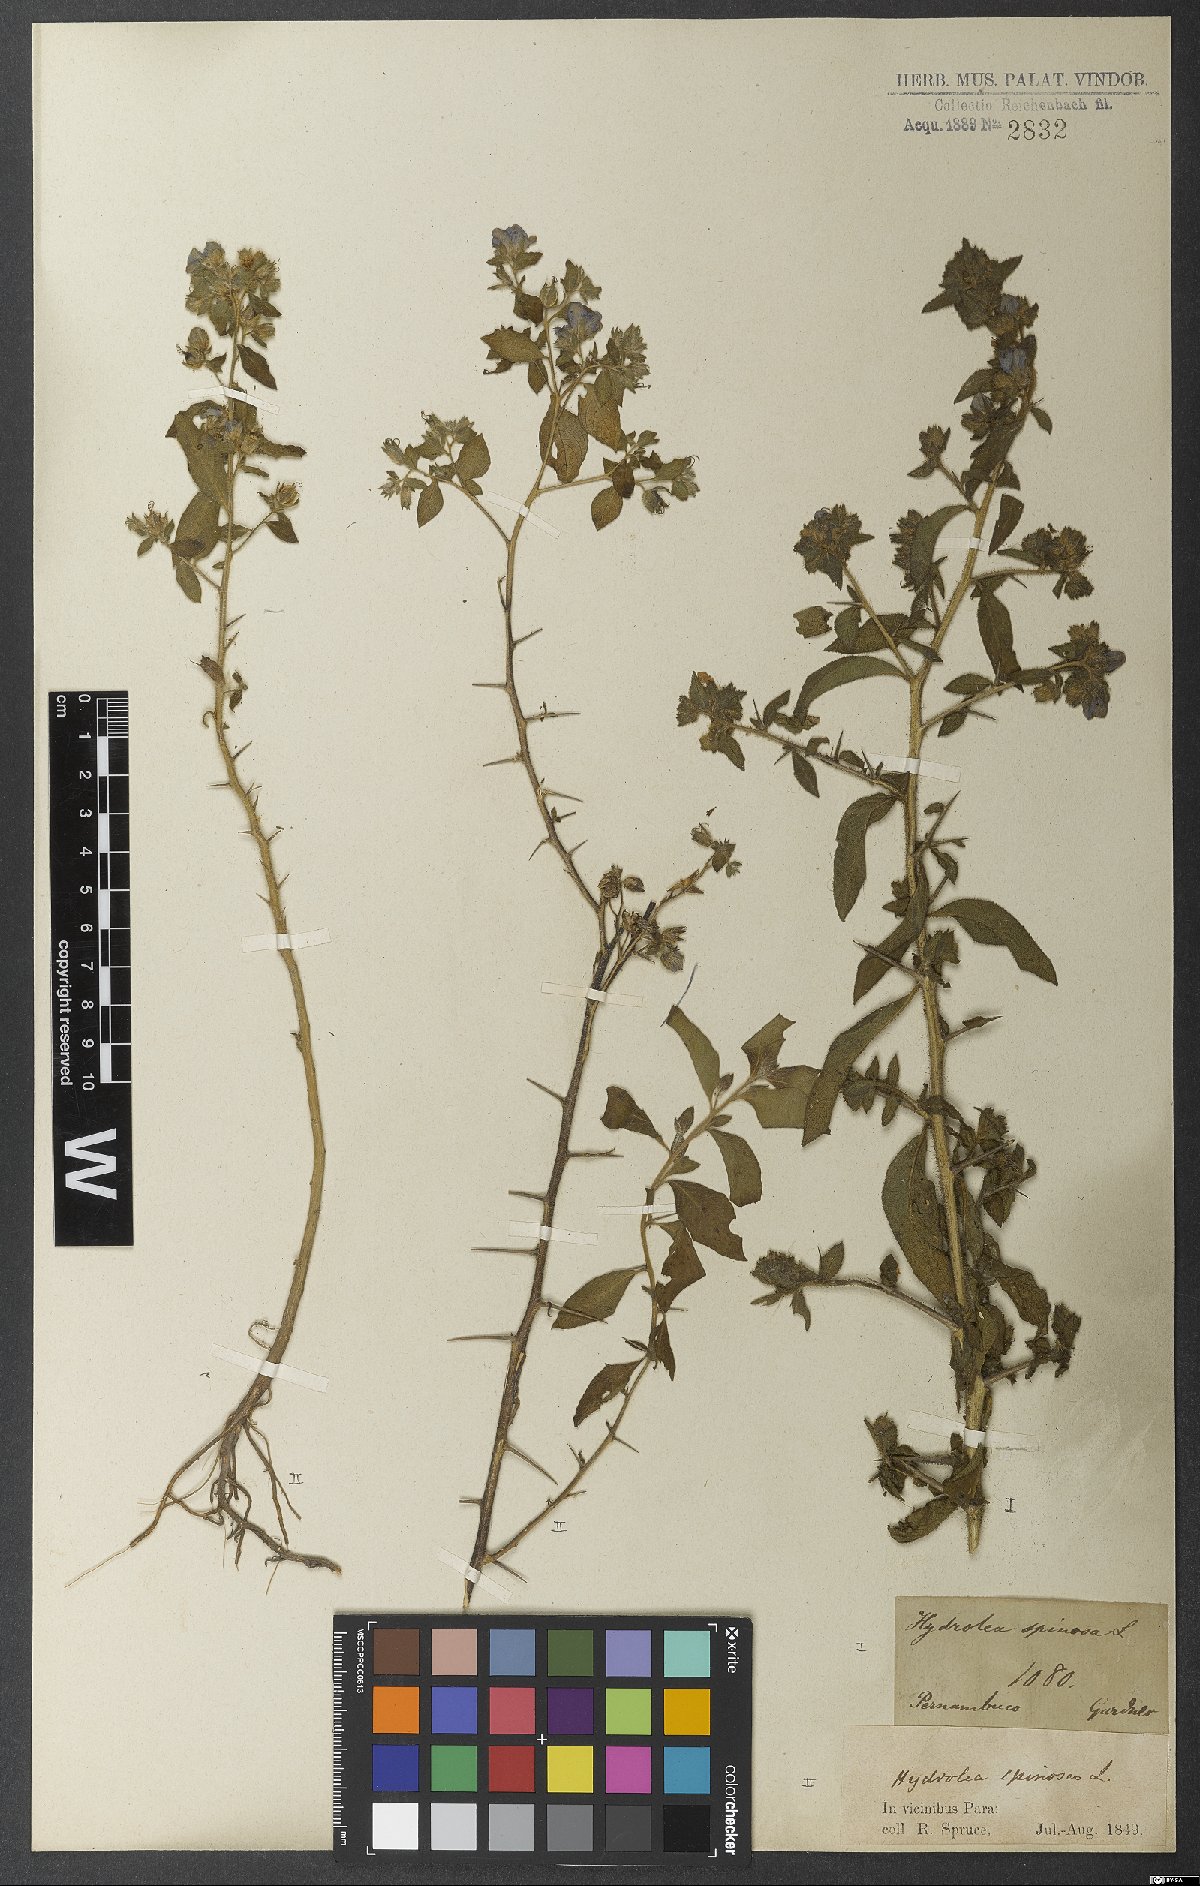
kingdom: Plantae
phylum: Tracheophyta
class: Magnoliopsida
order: Solanales
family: Hydroleaceae
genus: Hydrolea
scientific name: Hydrolea spinosa
